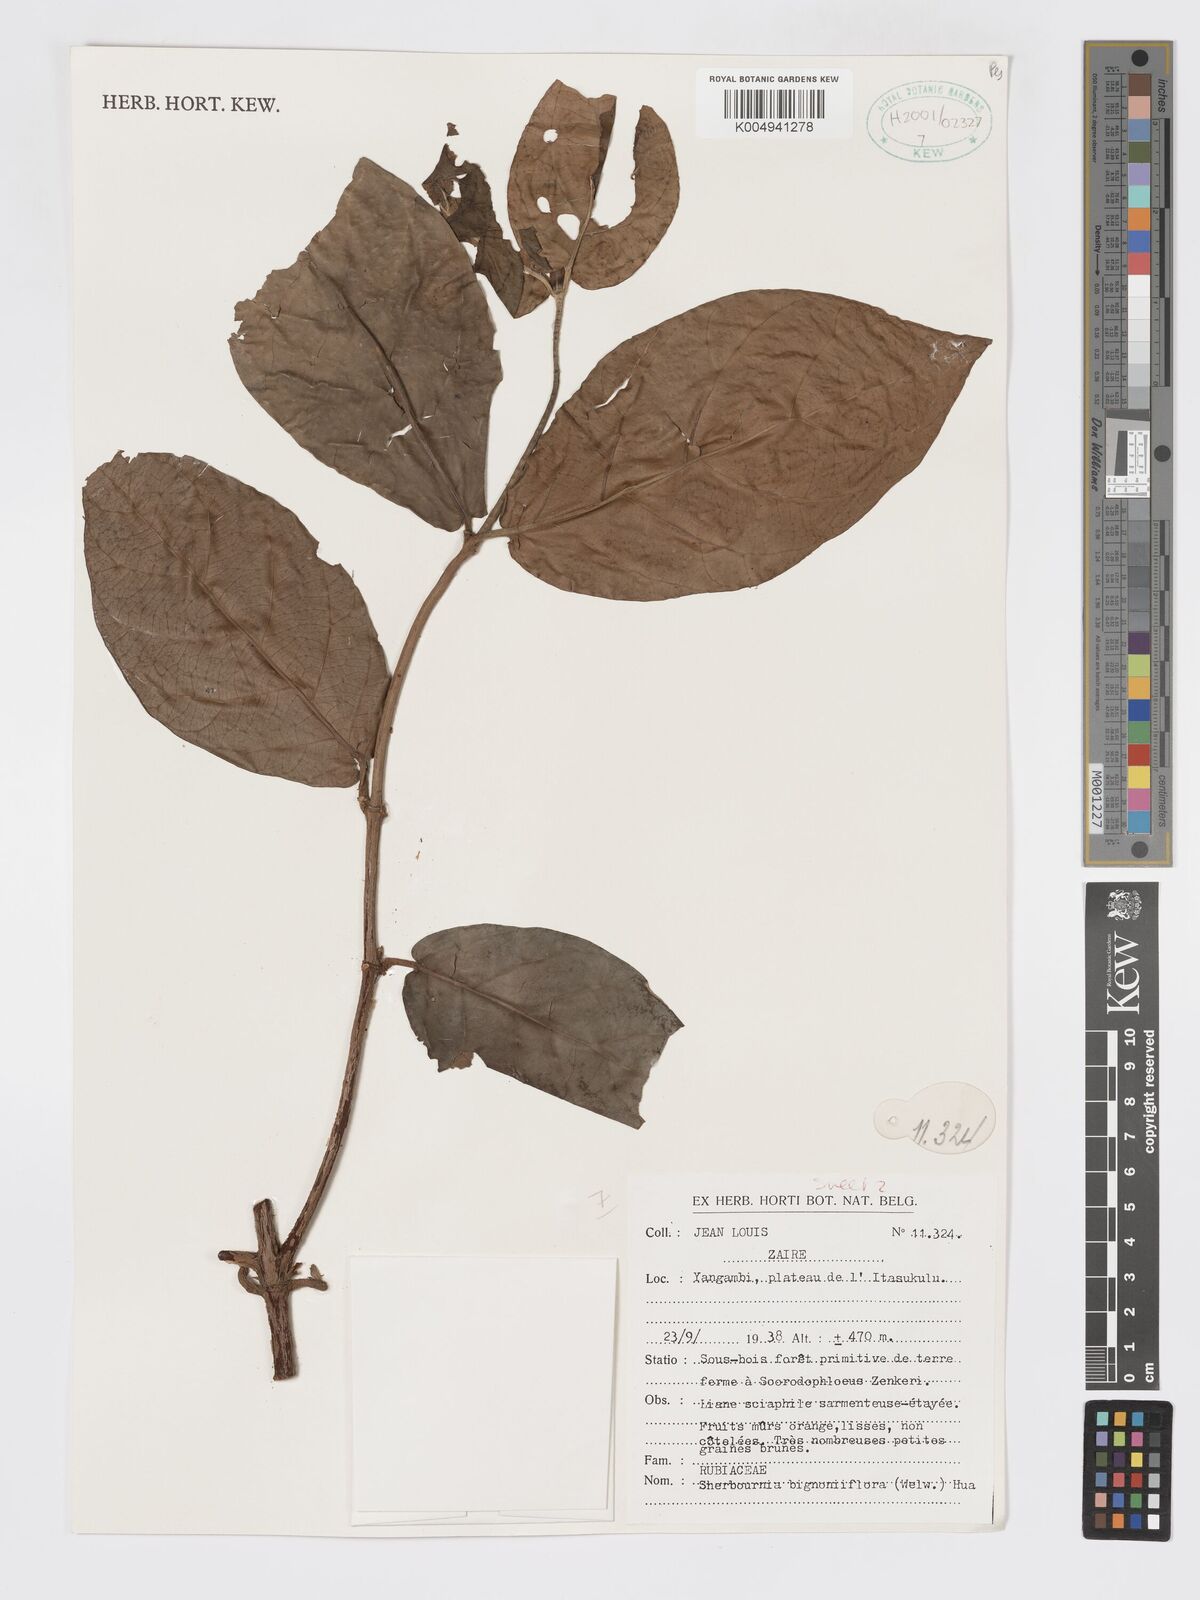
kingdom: Plantae
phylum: Tracheophyta
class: Magnoliopsida
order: Gentianales
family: Rubiaceae
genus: Sherbournia
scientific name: Sherbournia bignoniiflora
